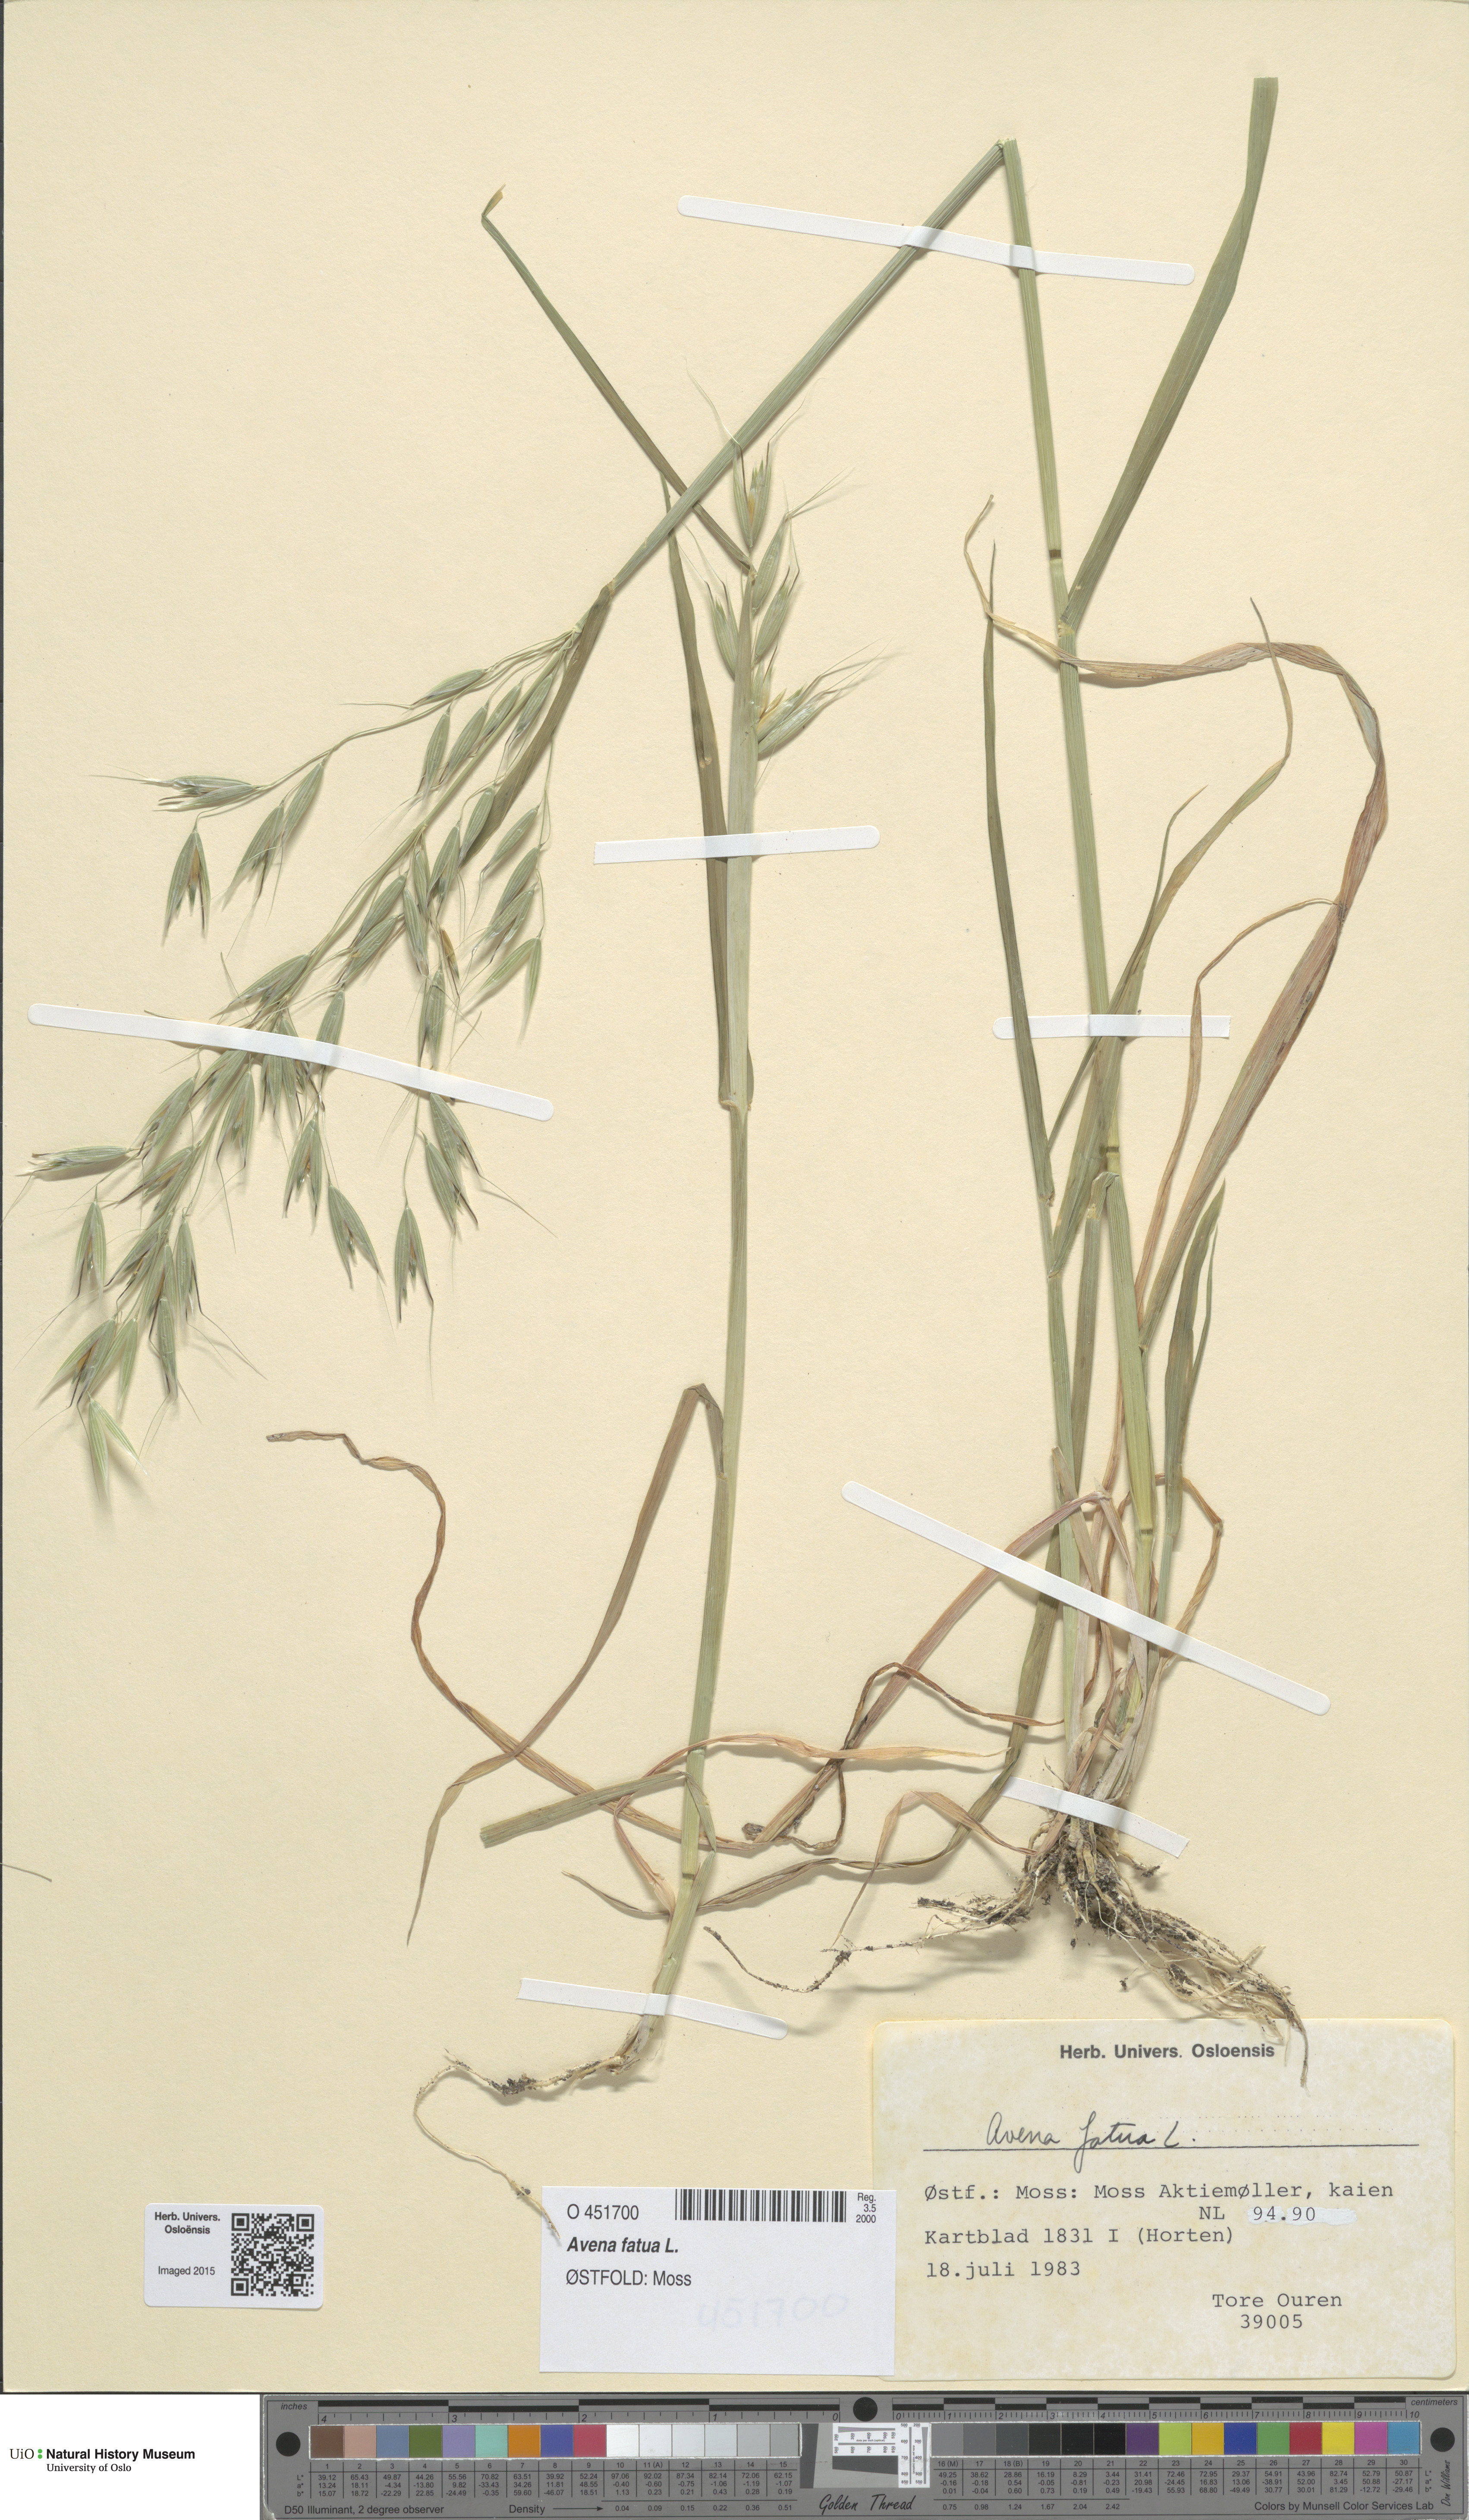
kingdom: Plantae
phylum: Tracheophyta
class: Liliopsida
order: Poales
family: Poaceae
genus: Avena
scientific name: Avena fatua
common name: Wild oat
